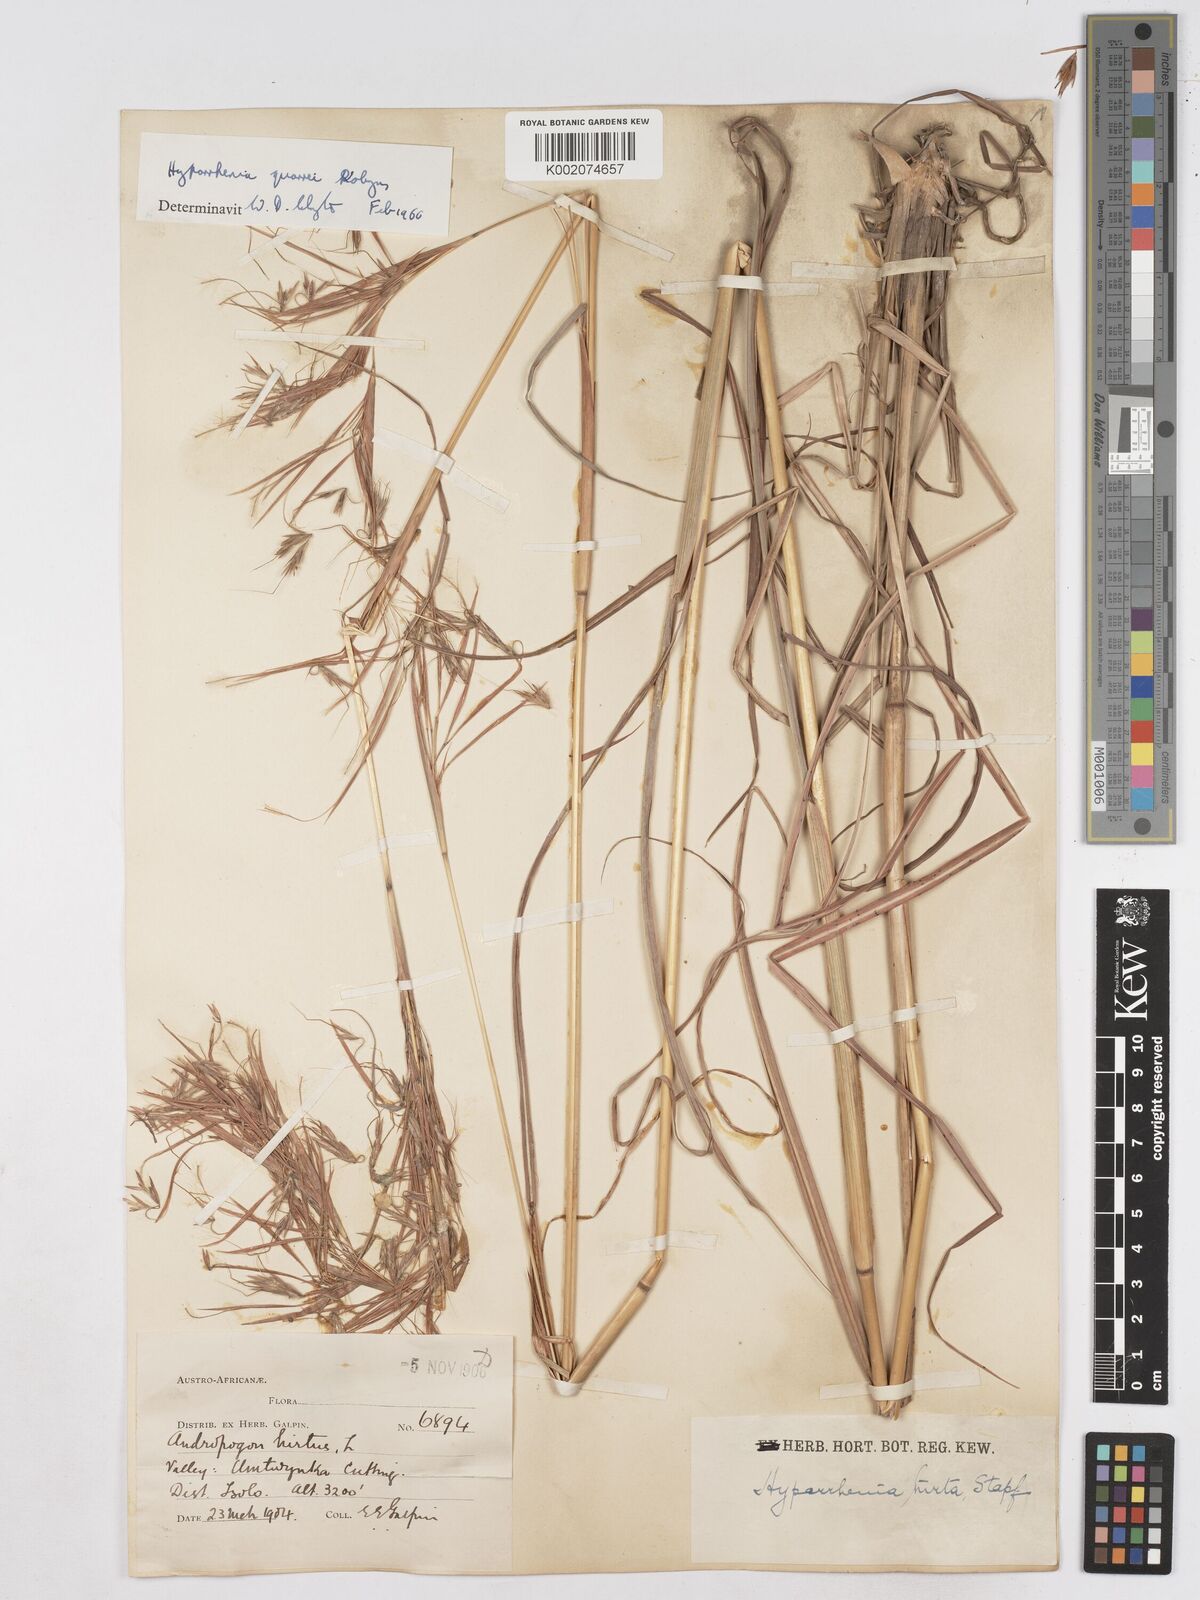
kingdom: Plantae
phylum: Tracheophyta
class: Liliopsida
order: Poales
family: Poaceae
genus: Hyparrhenia
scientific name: Hyparrhenia quarrei
